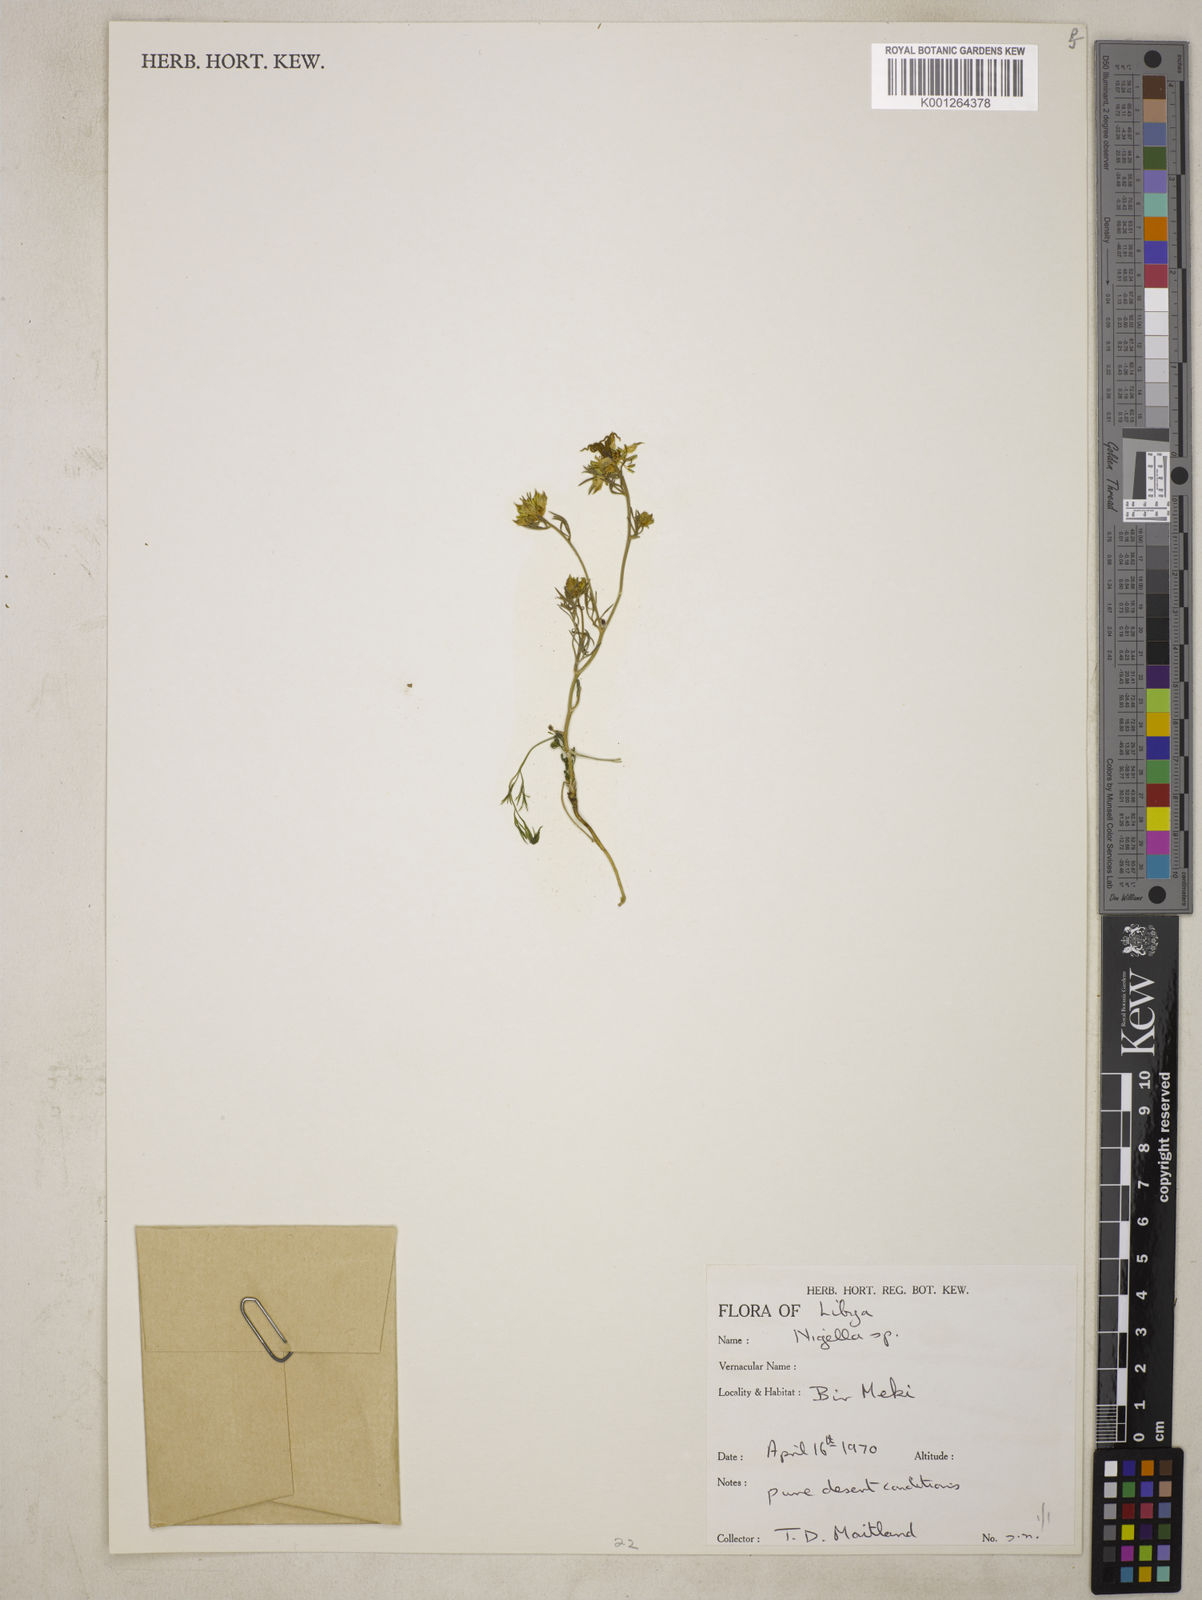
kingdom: Plantae
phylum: Tracheophyta
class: Magnoliopsida
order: Ranunculales
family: Ranunculaceae
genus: Nigella
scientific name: Nigella hispanica
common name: Fennel-flower
